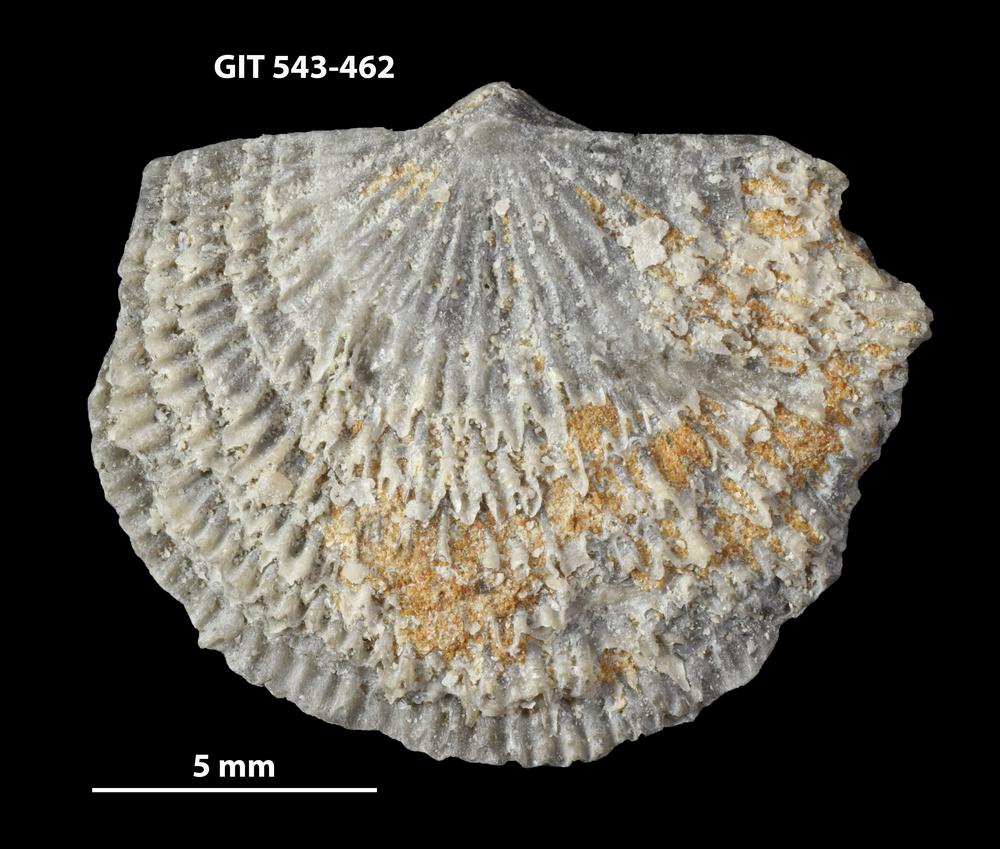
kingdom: Animalia
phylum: Brachiopoda
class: Rhynchonellata
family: Clitambonitidae
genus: Clitambonites
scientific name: Clitambonites
